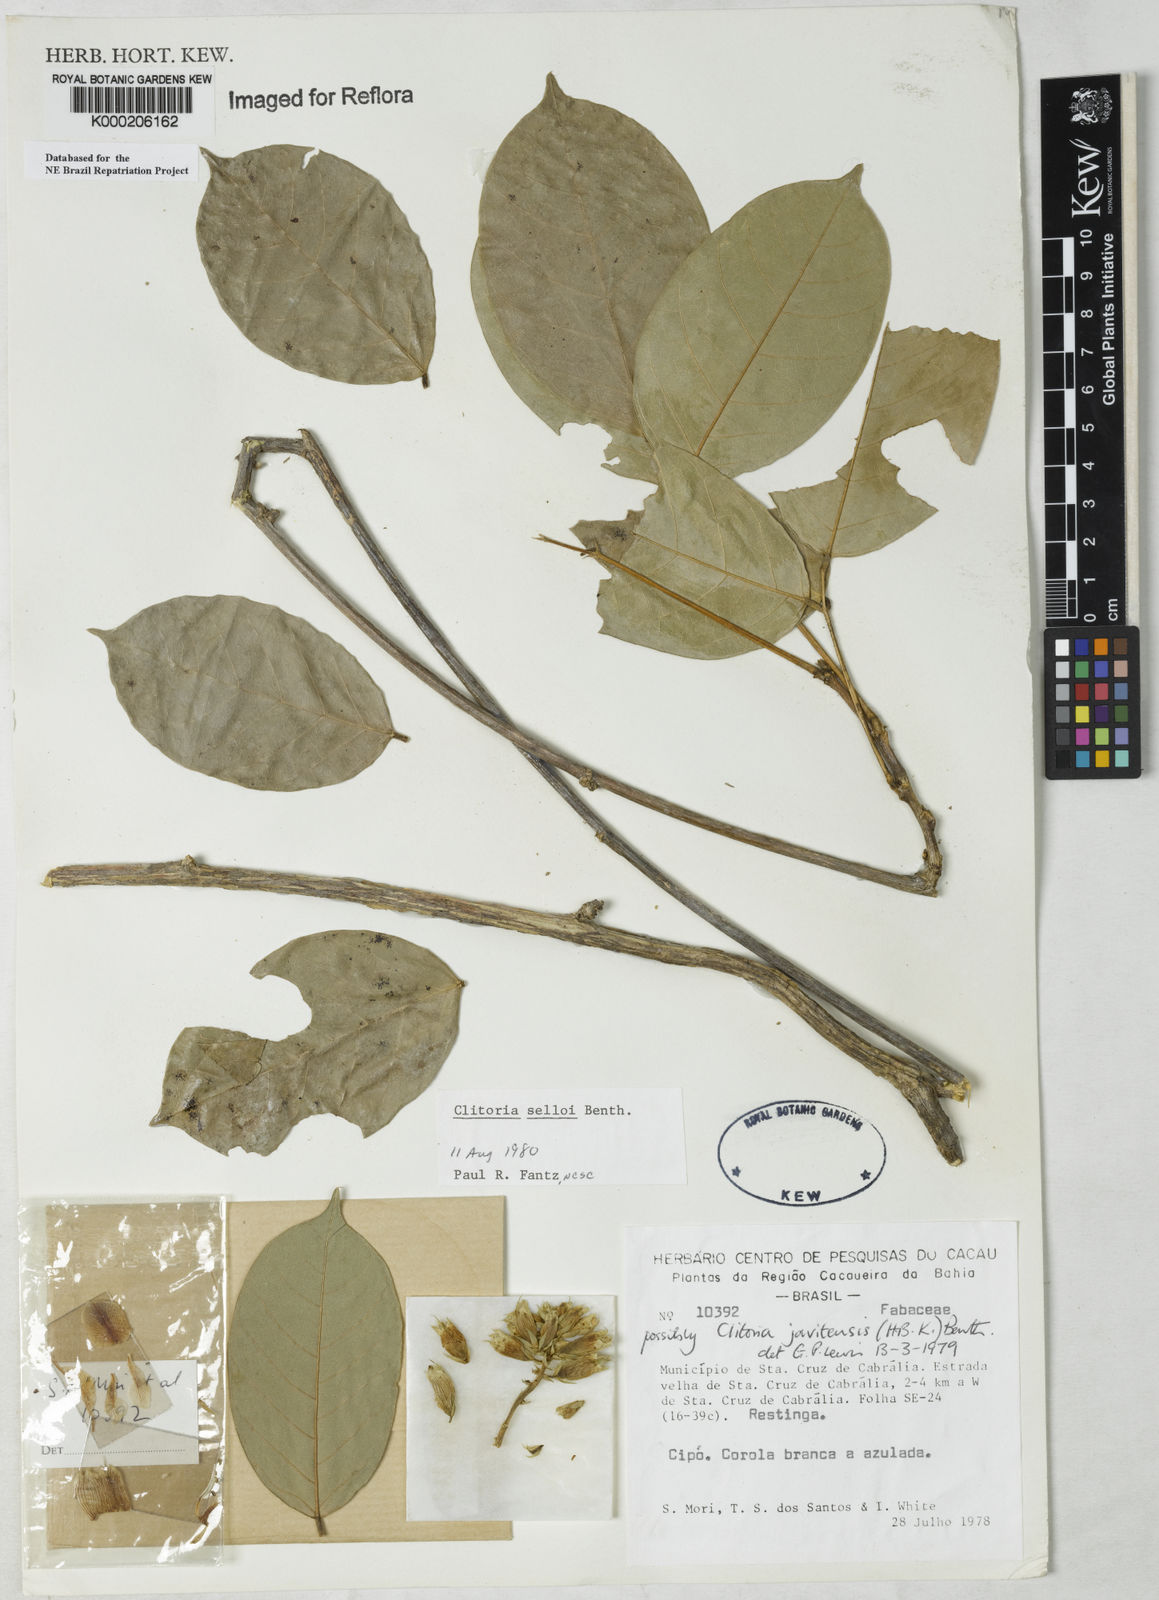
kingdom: Plantae
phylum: Tracheophyta
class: Magnoliopsida
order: Fabales
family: Fabaceae
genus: Clitoria
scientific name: Clitoria selloi
